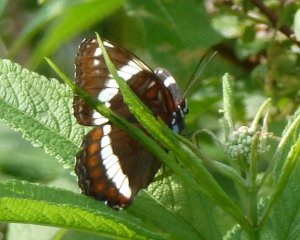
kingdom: Animalia
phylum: Arthropoda
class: Insecta
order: Lepidoptera
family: Nymphalidae
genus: Limenitis
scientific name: Limenitis arthemis
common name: Red-spotted Admiral
